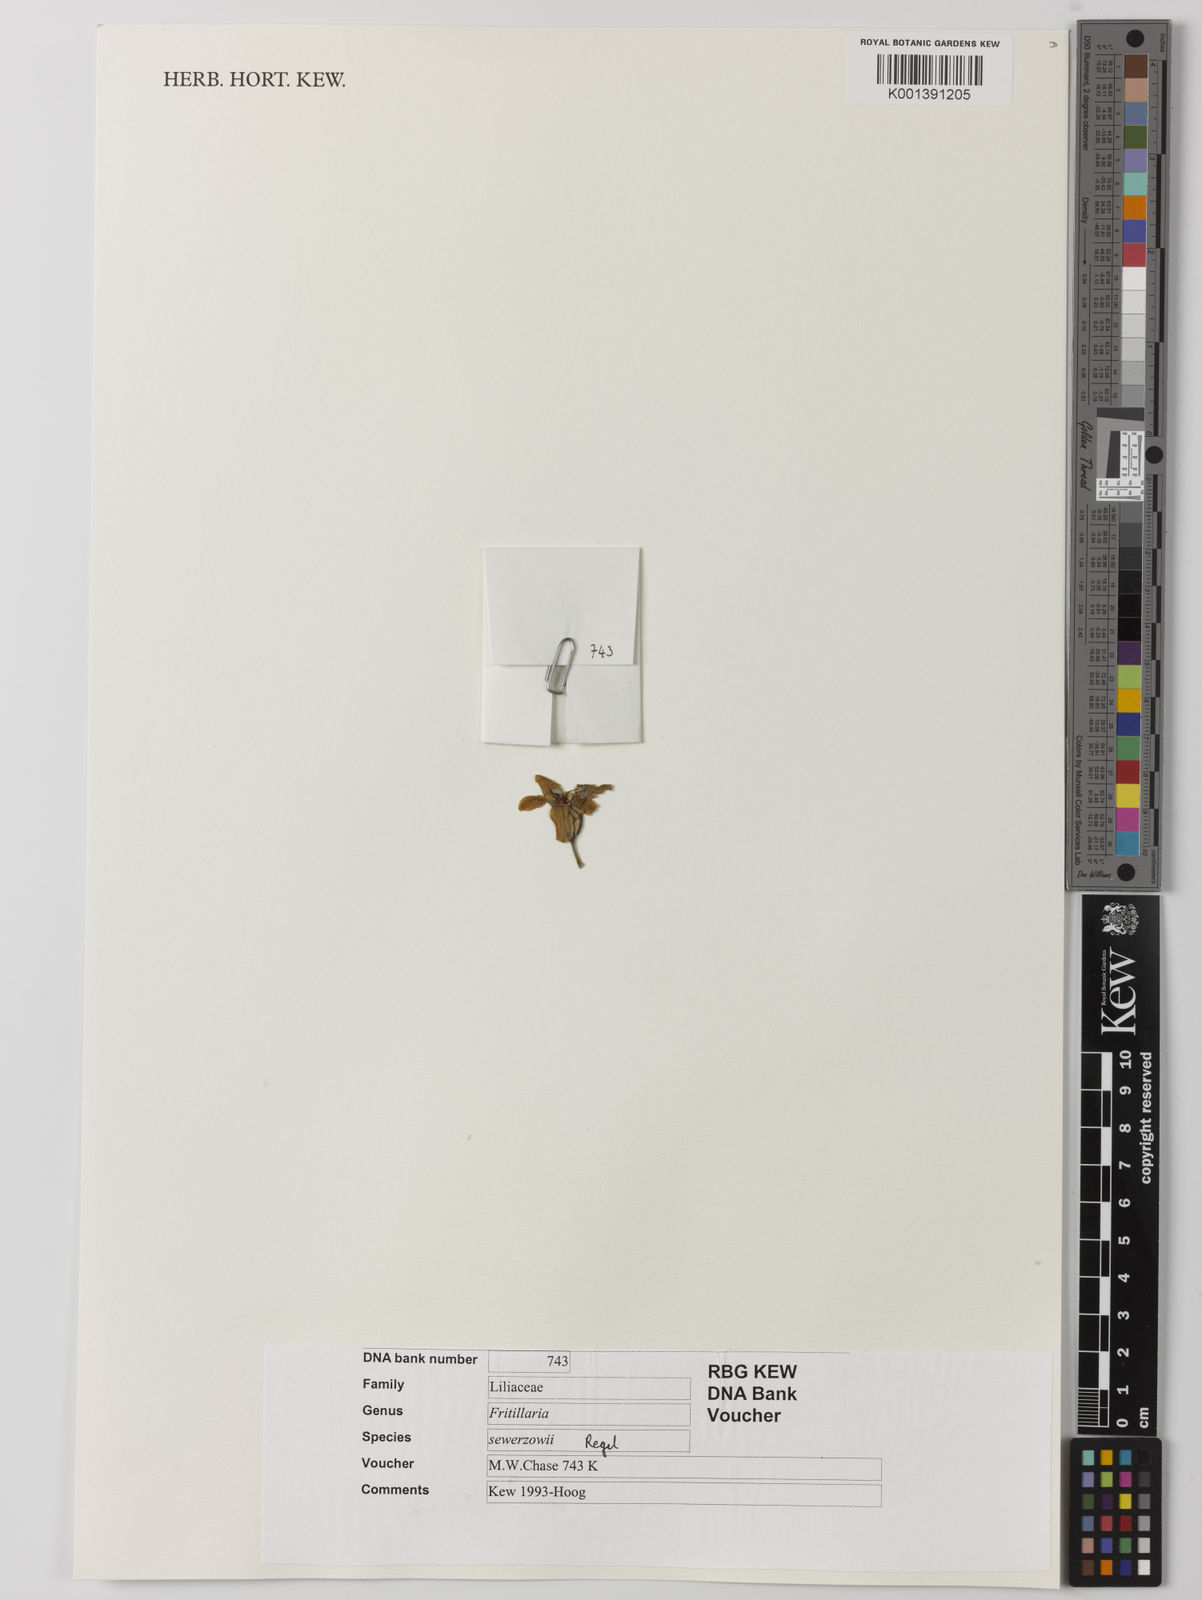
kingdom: Plantae
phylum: Tracheophyta
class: Liliopsida
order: Liliales
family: Liliaceae
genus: Fritillaria
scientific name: Fritillaria sewerzowii
